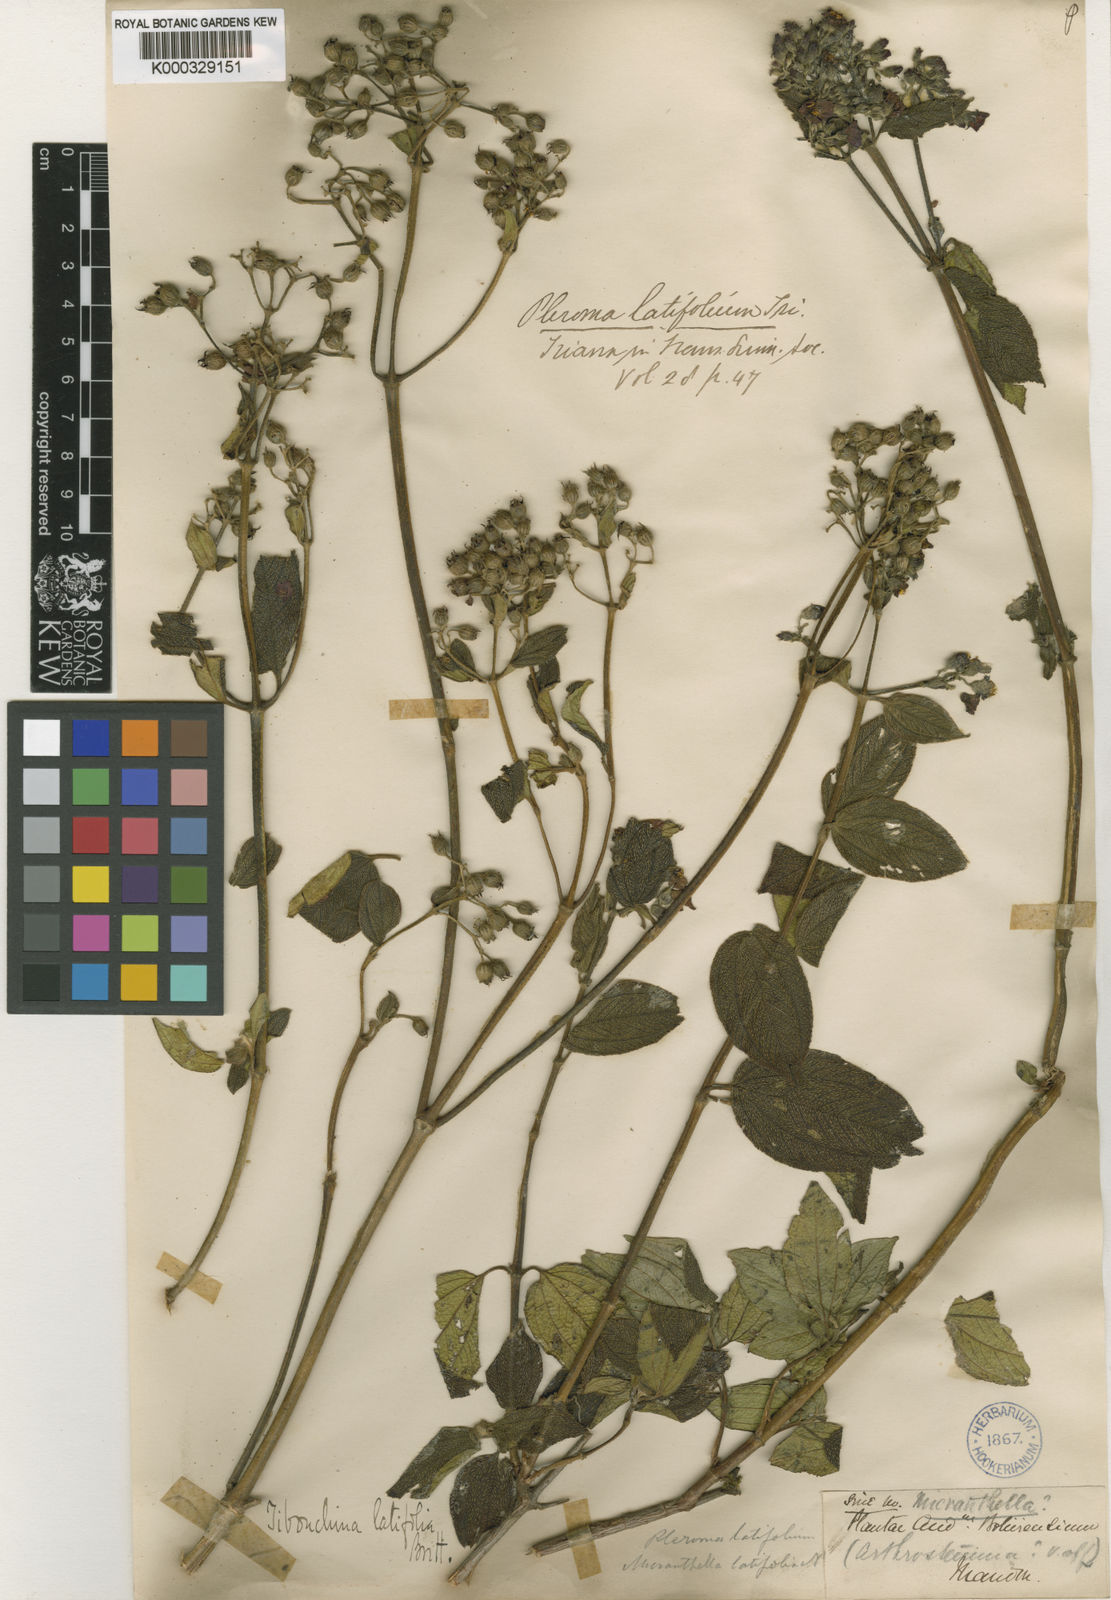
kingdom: Plantae
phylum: Tracheophyta
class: Magnoliopsida
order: Myrtales
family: Melastomataceae
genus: Tibouchina
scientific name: Tibouchina
